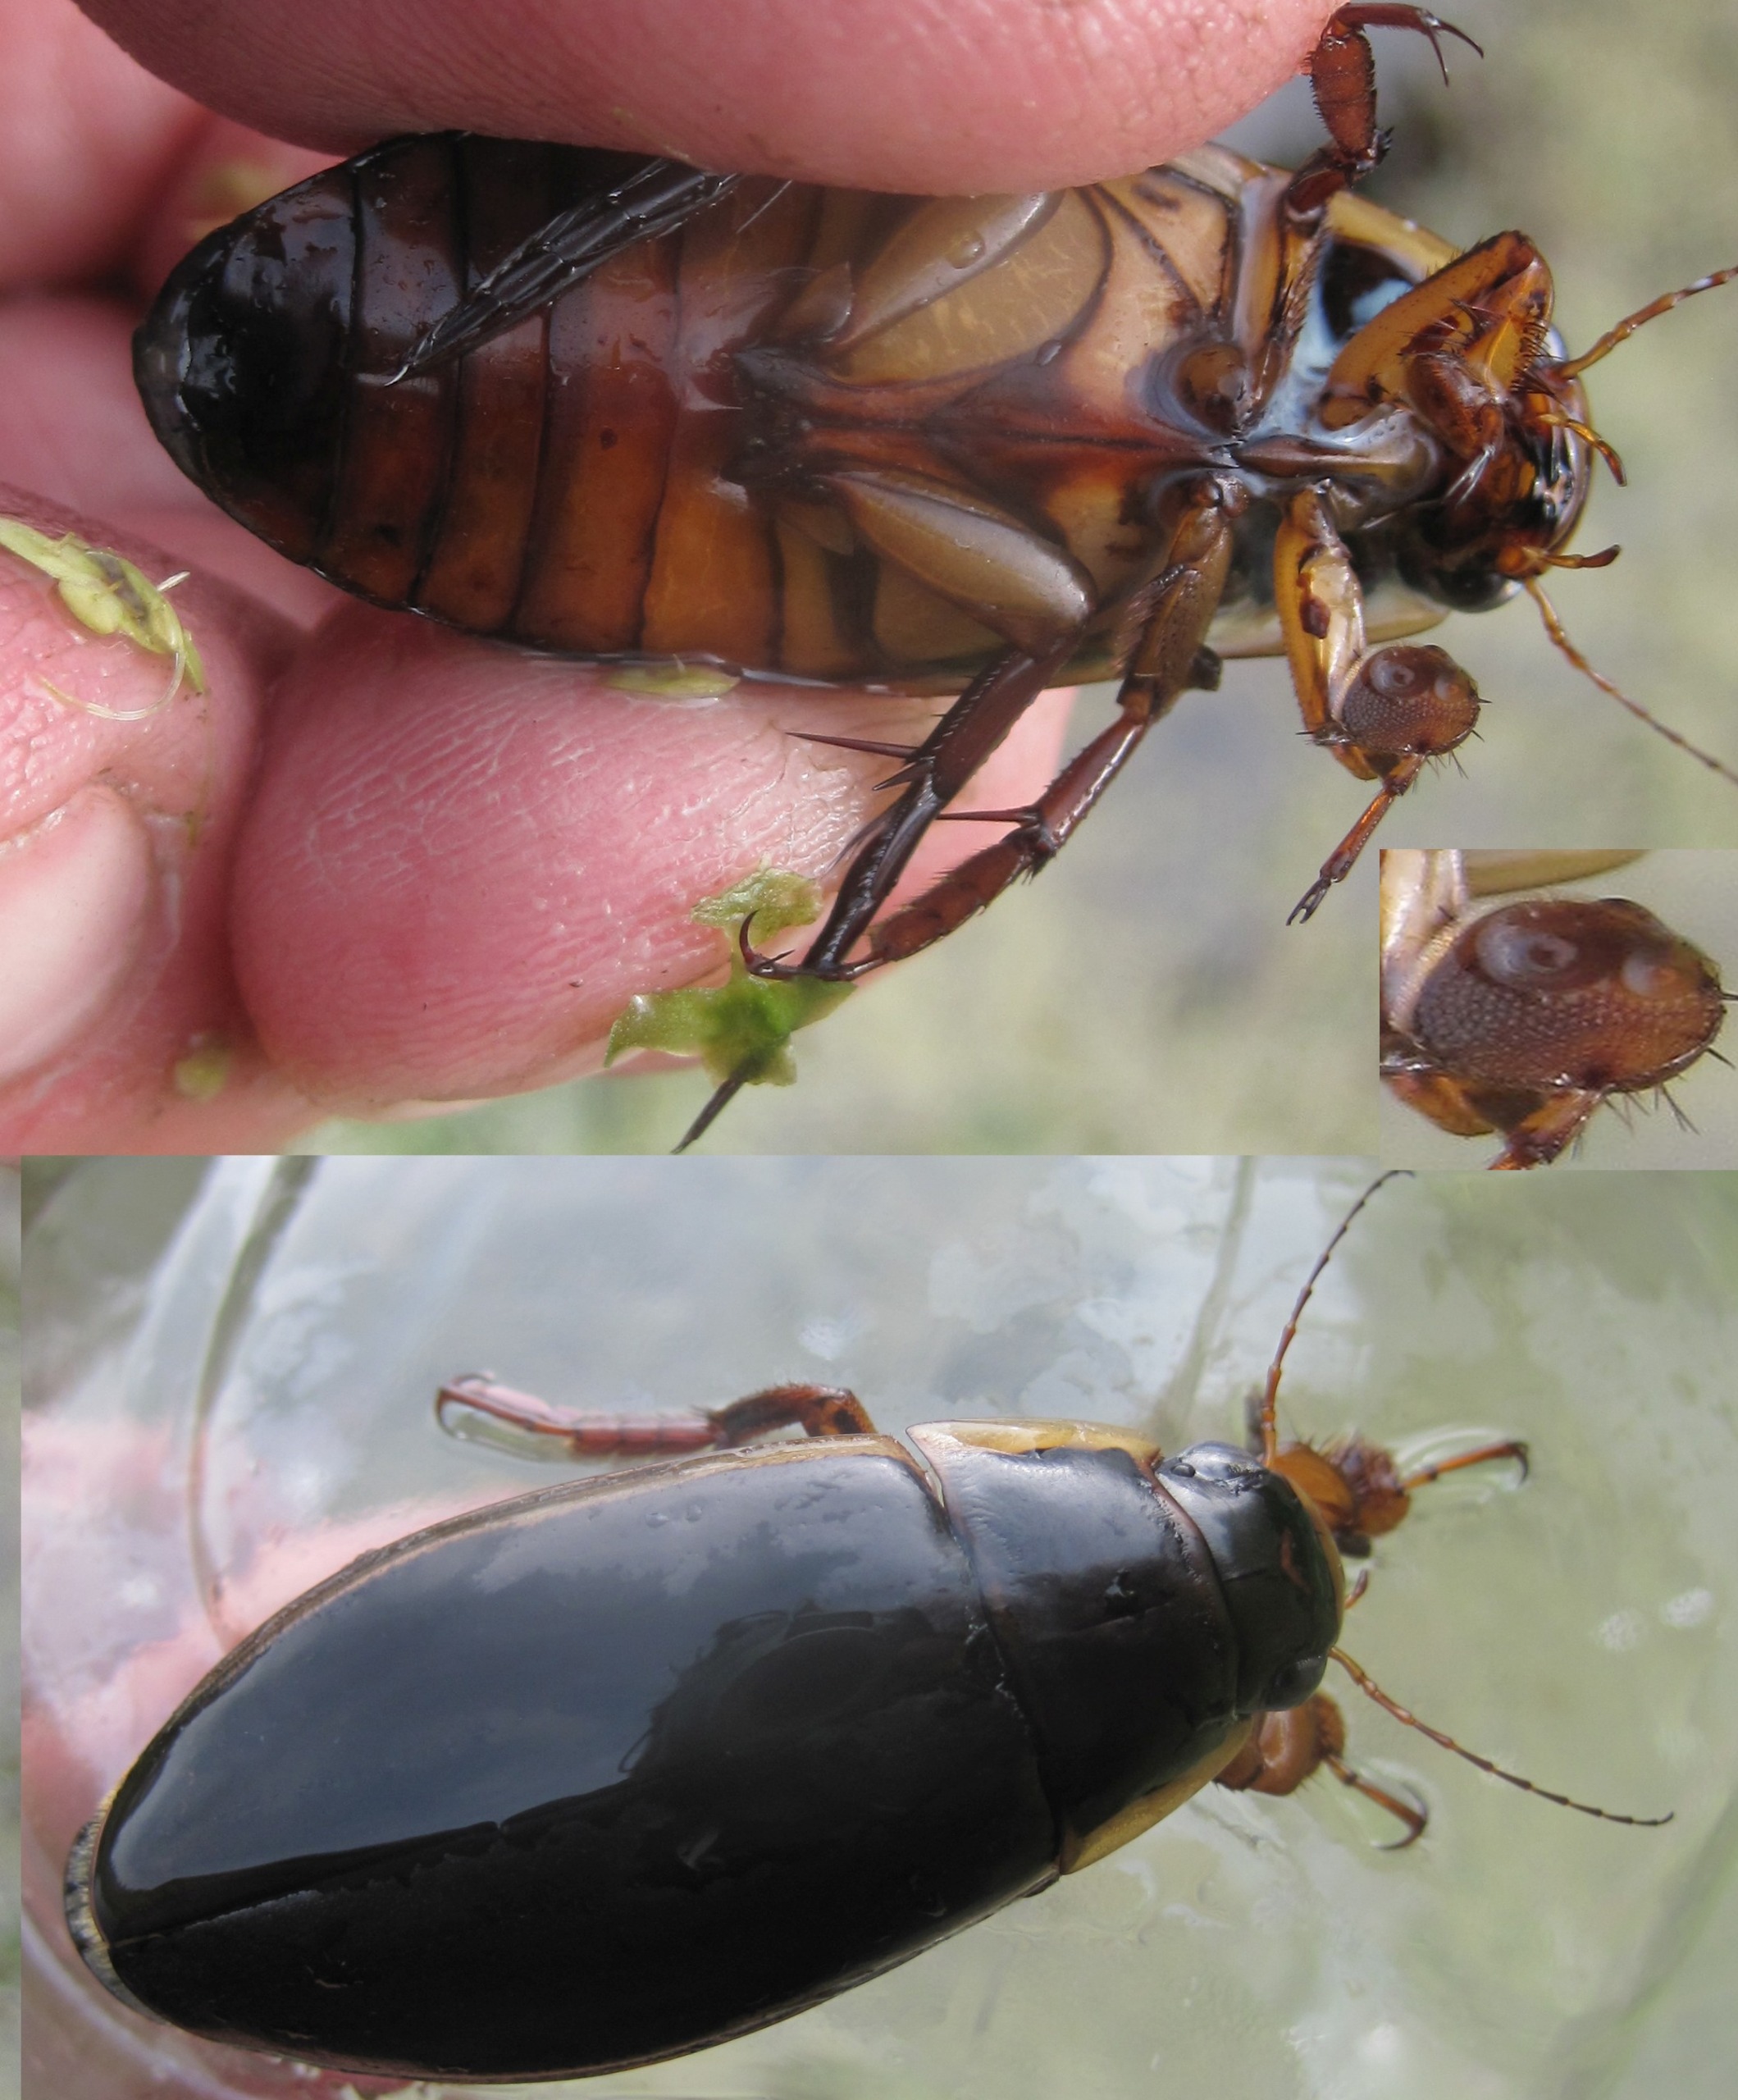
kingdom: Animalia
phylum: Arthropoda
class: Insecta
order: Coleoptera
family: Dytiscidae
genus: Dytiscus
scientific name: Dytiscus dimidiatus
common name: Rundhoftet vandkalv
